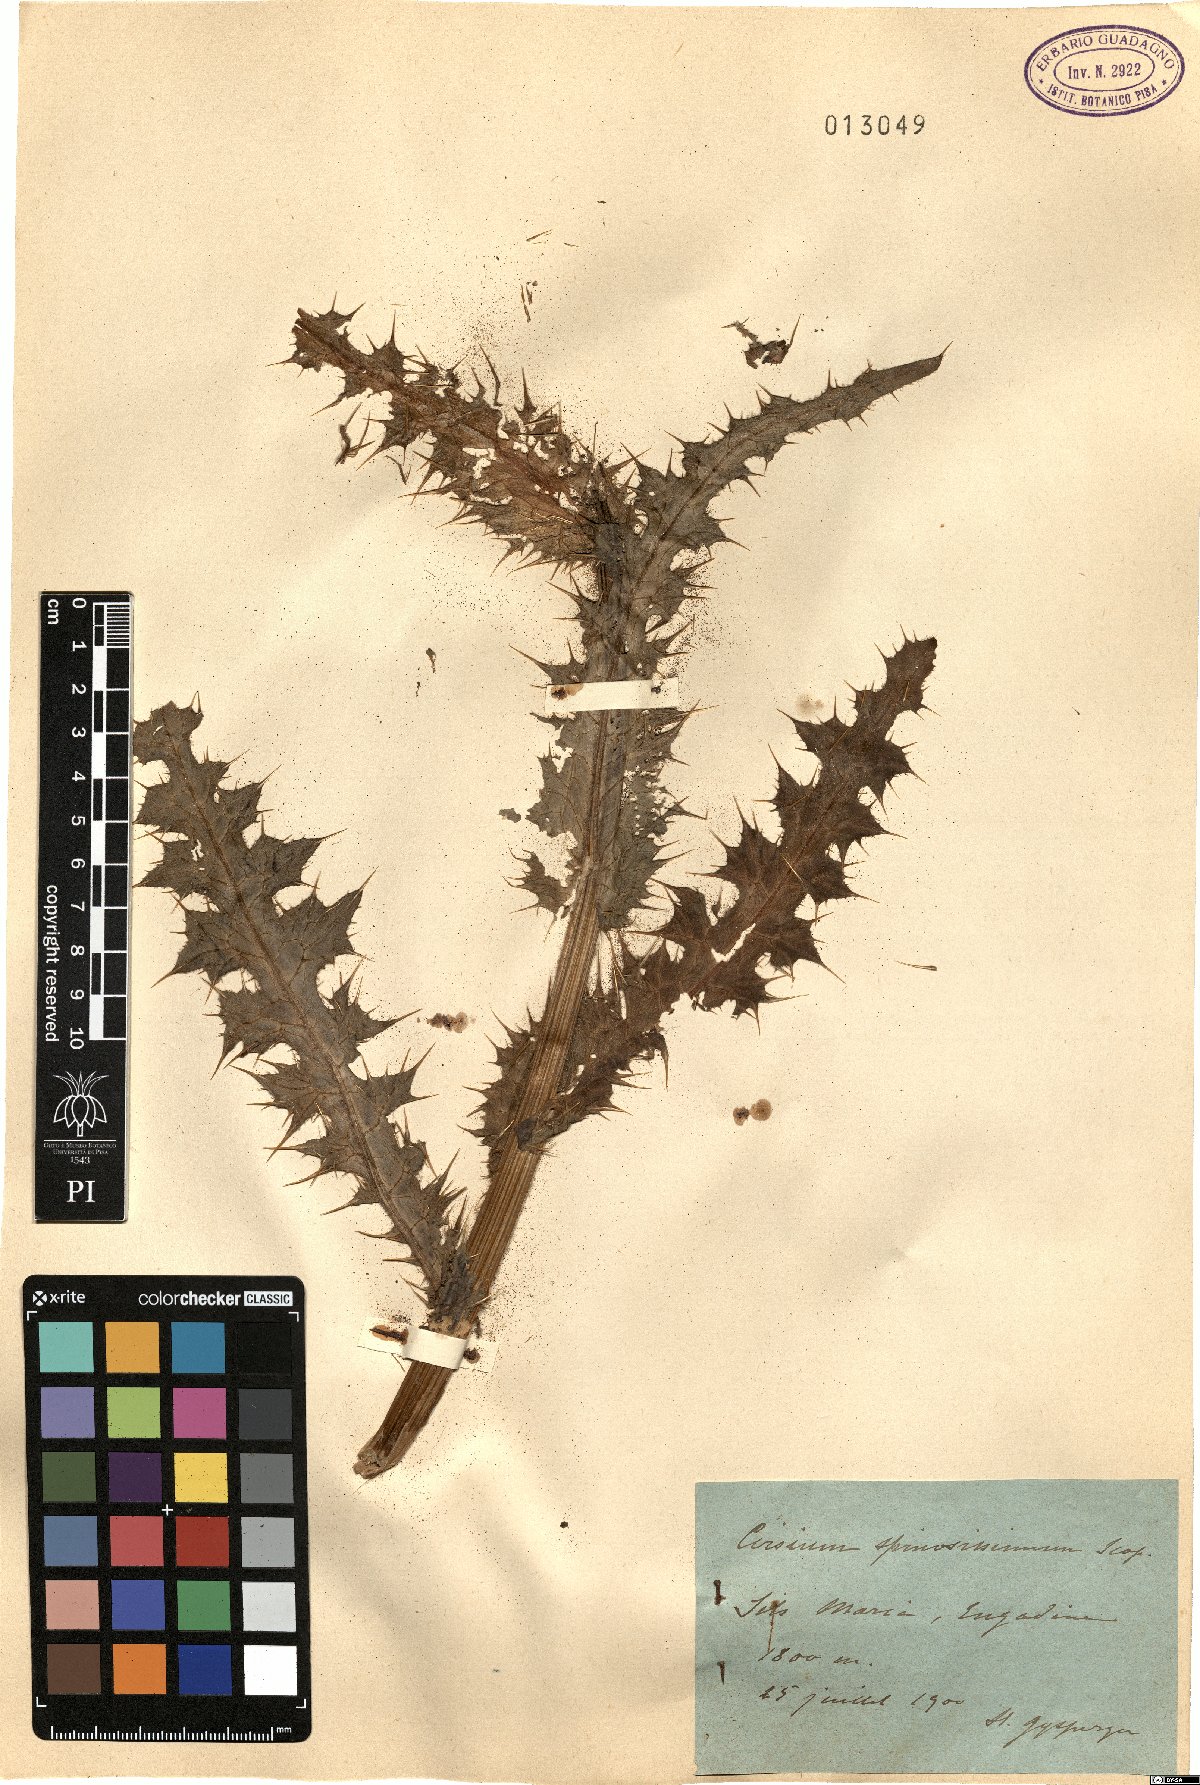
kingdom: Plantae
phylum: Tracheophyta
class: Magnoliopsida
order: Asterales
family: Asteraceae
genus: Cirsium
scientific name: Cirsium spinosissimum
